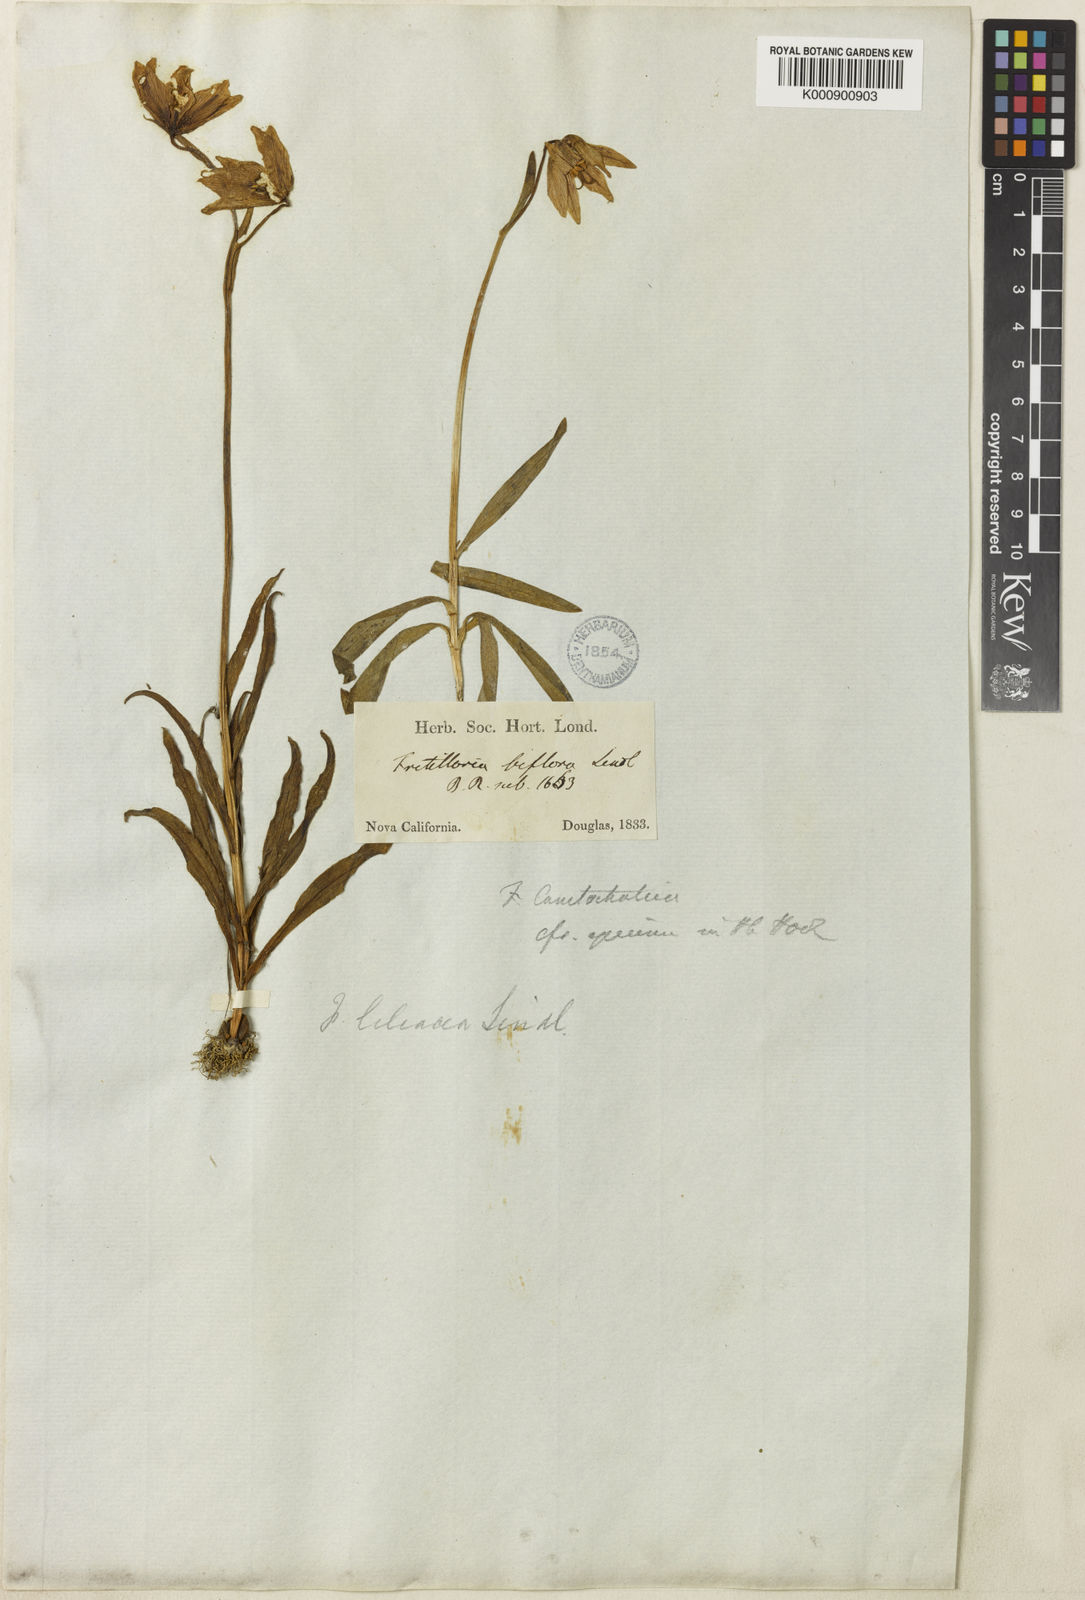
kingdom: Plantae
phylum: Tracheophyta
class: Liliopsida
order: Liliales
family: Liliaceae
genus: Fritillaria
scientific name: Fritillaria liliacea
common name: Fragrant fritillary
